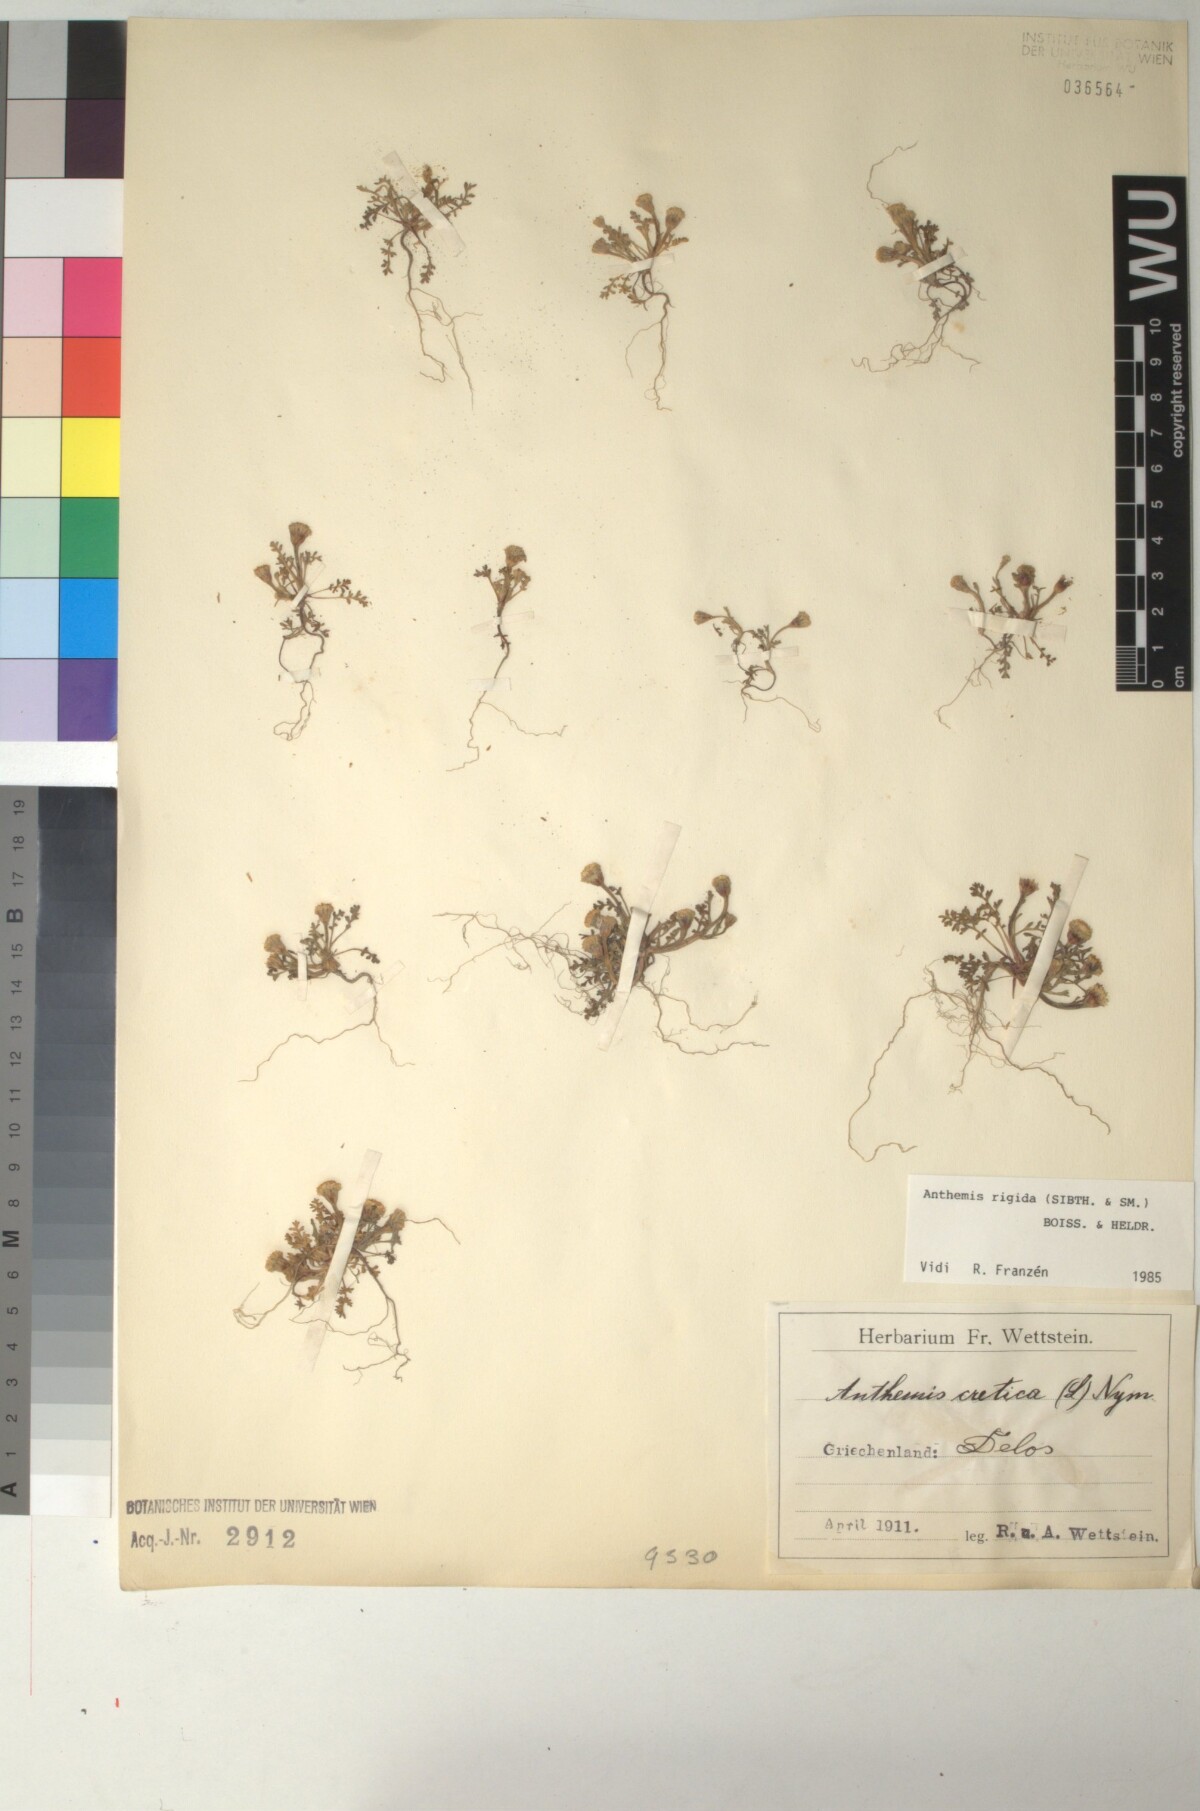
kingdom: Plantae
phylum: Tracheophyta
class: Magnoliopsida
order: Asterales
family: Asteraceae
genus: Anthemis
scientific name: Anthemis rigida
